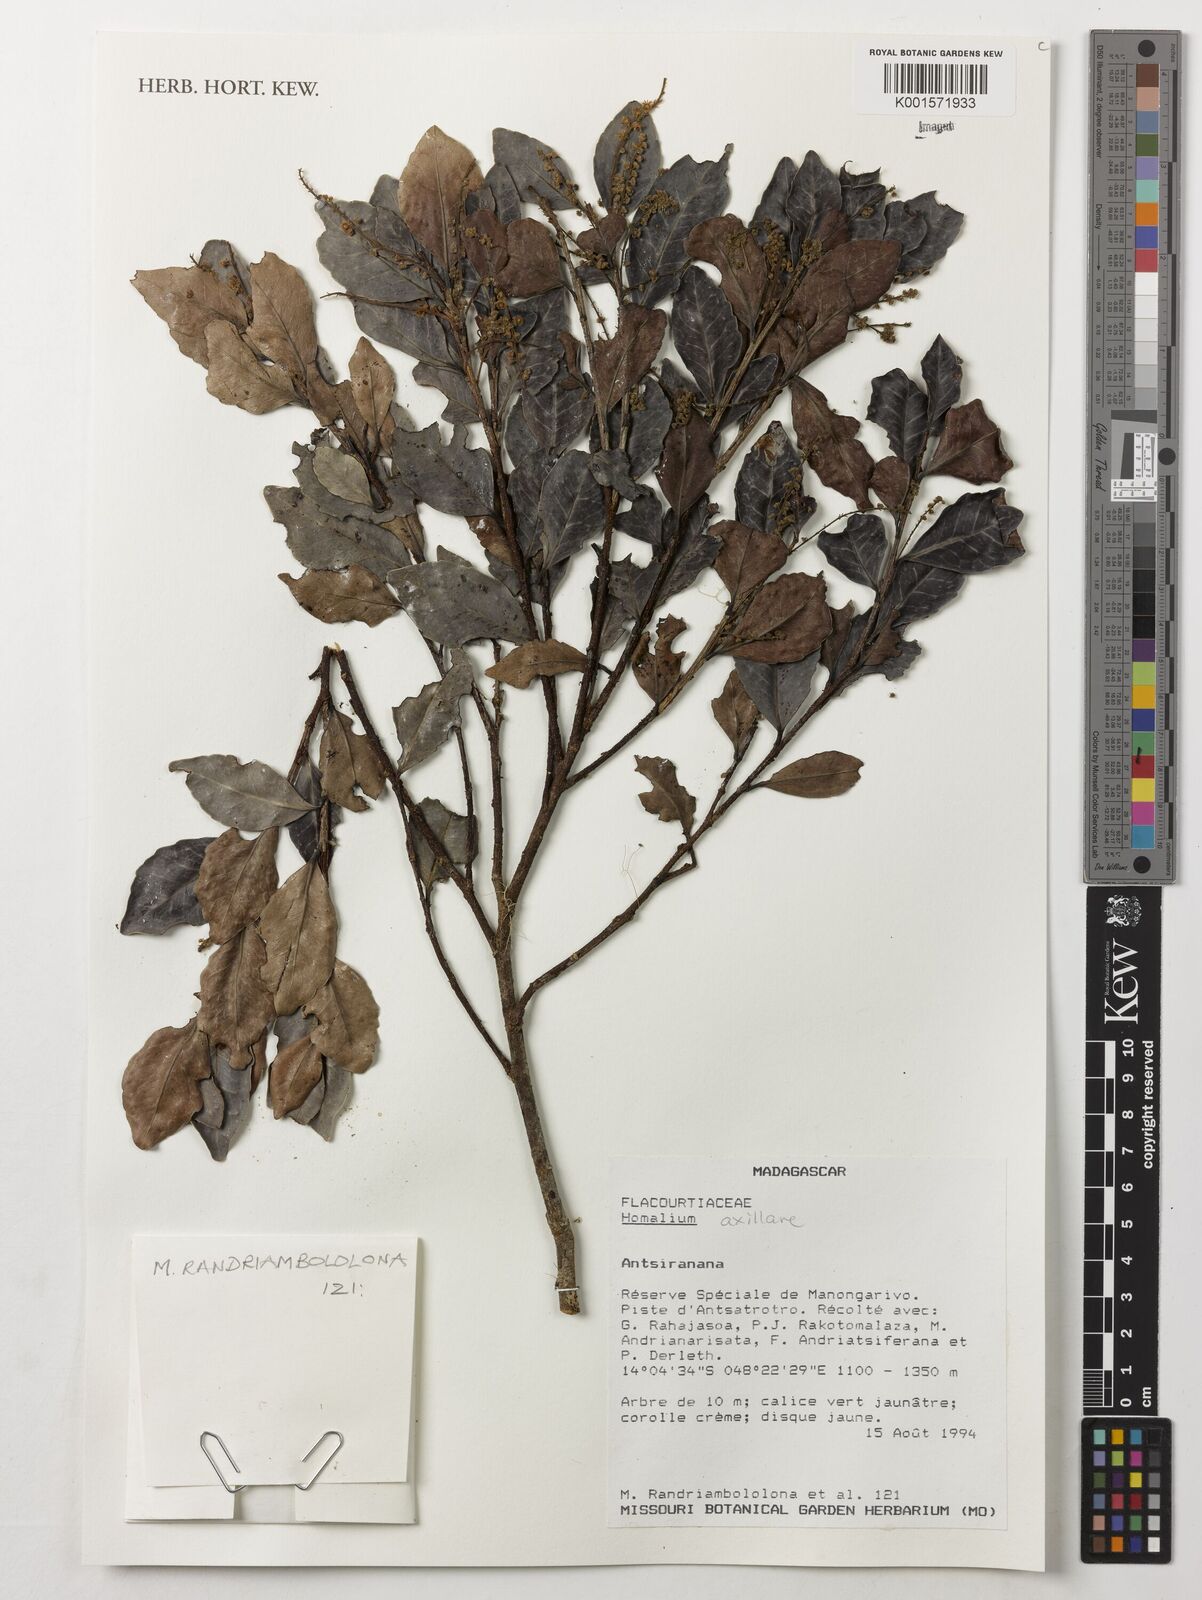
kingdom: Plantae
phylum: Tracheophyta
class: Magnoliopsida
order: Malpighiales
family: Salicaceae
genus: Homalium
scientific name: Homalium axillare
